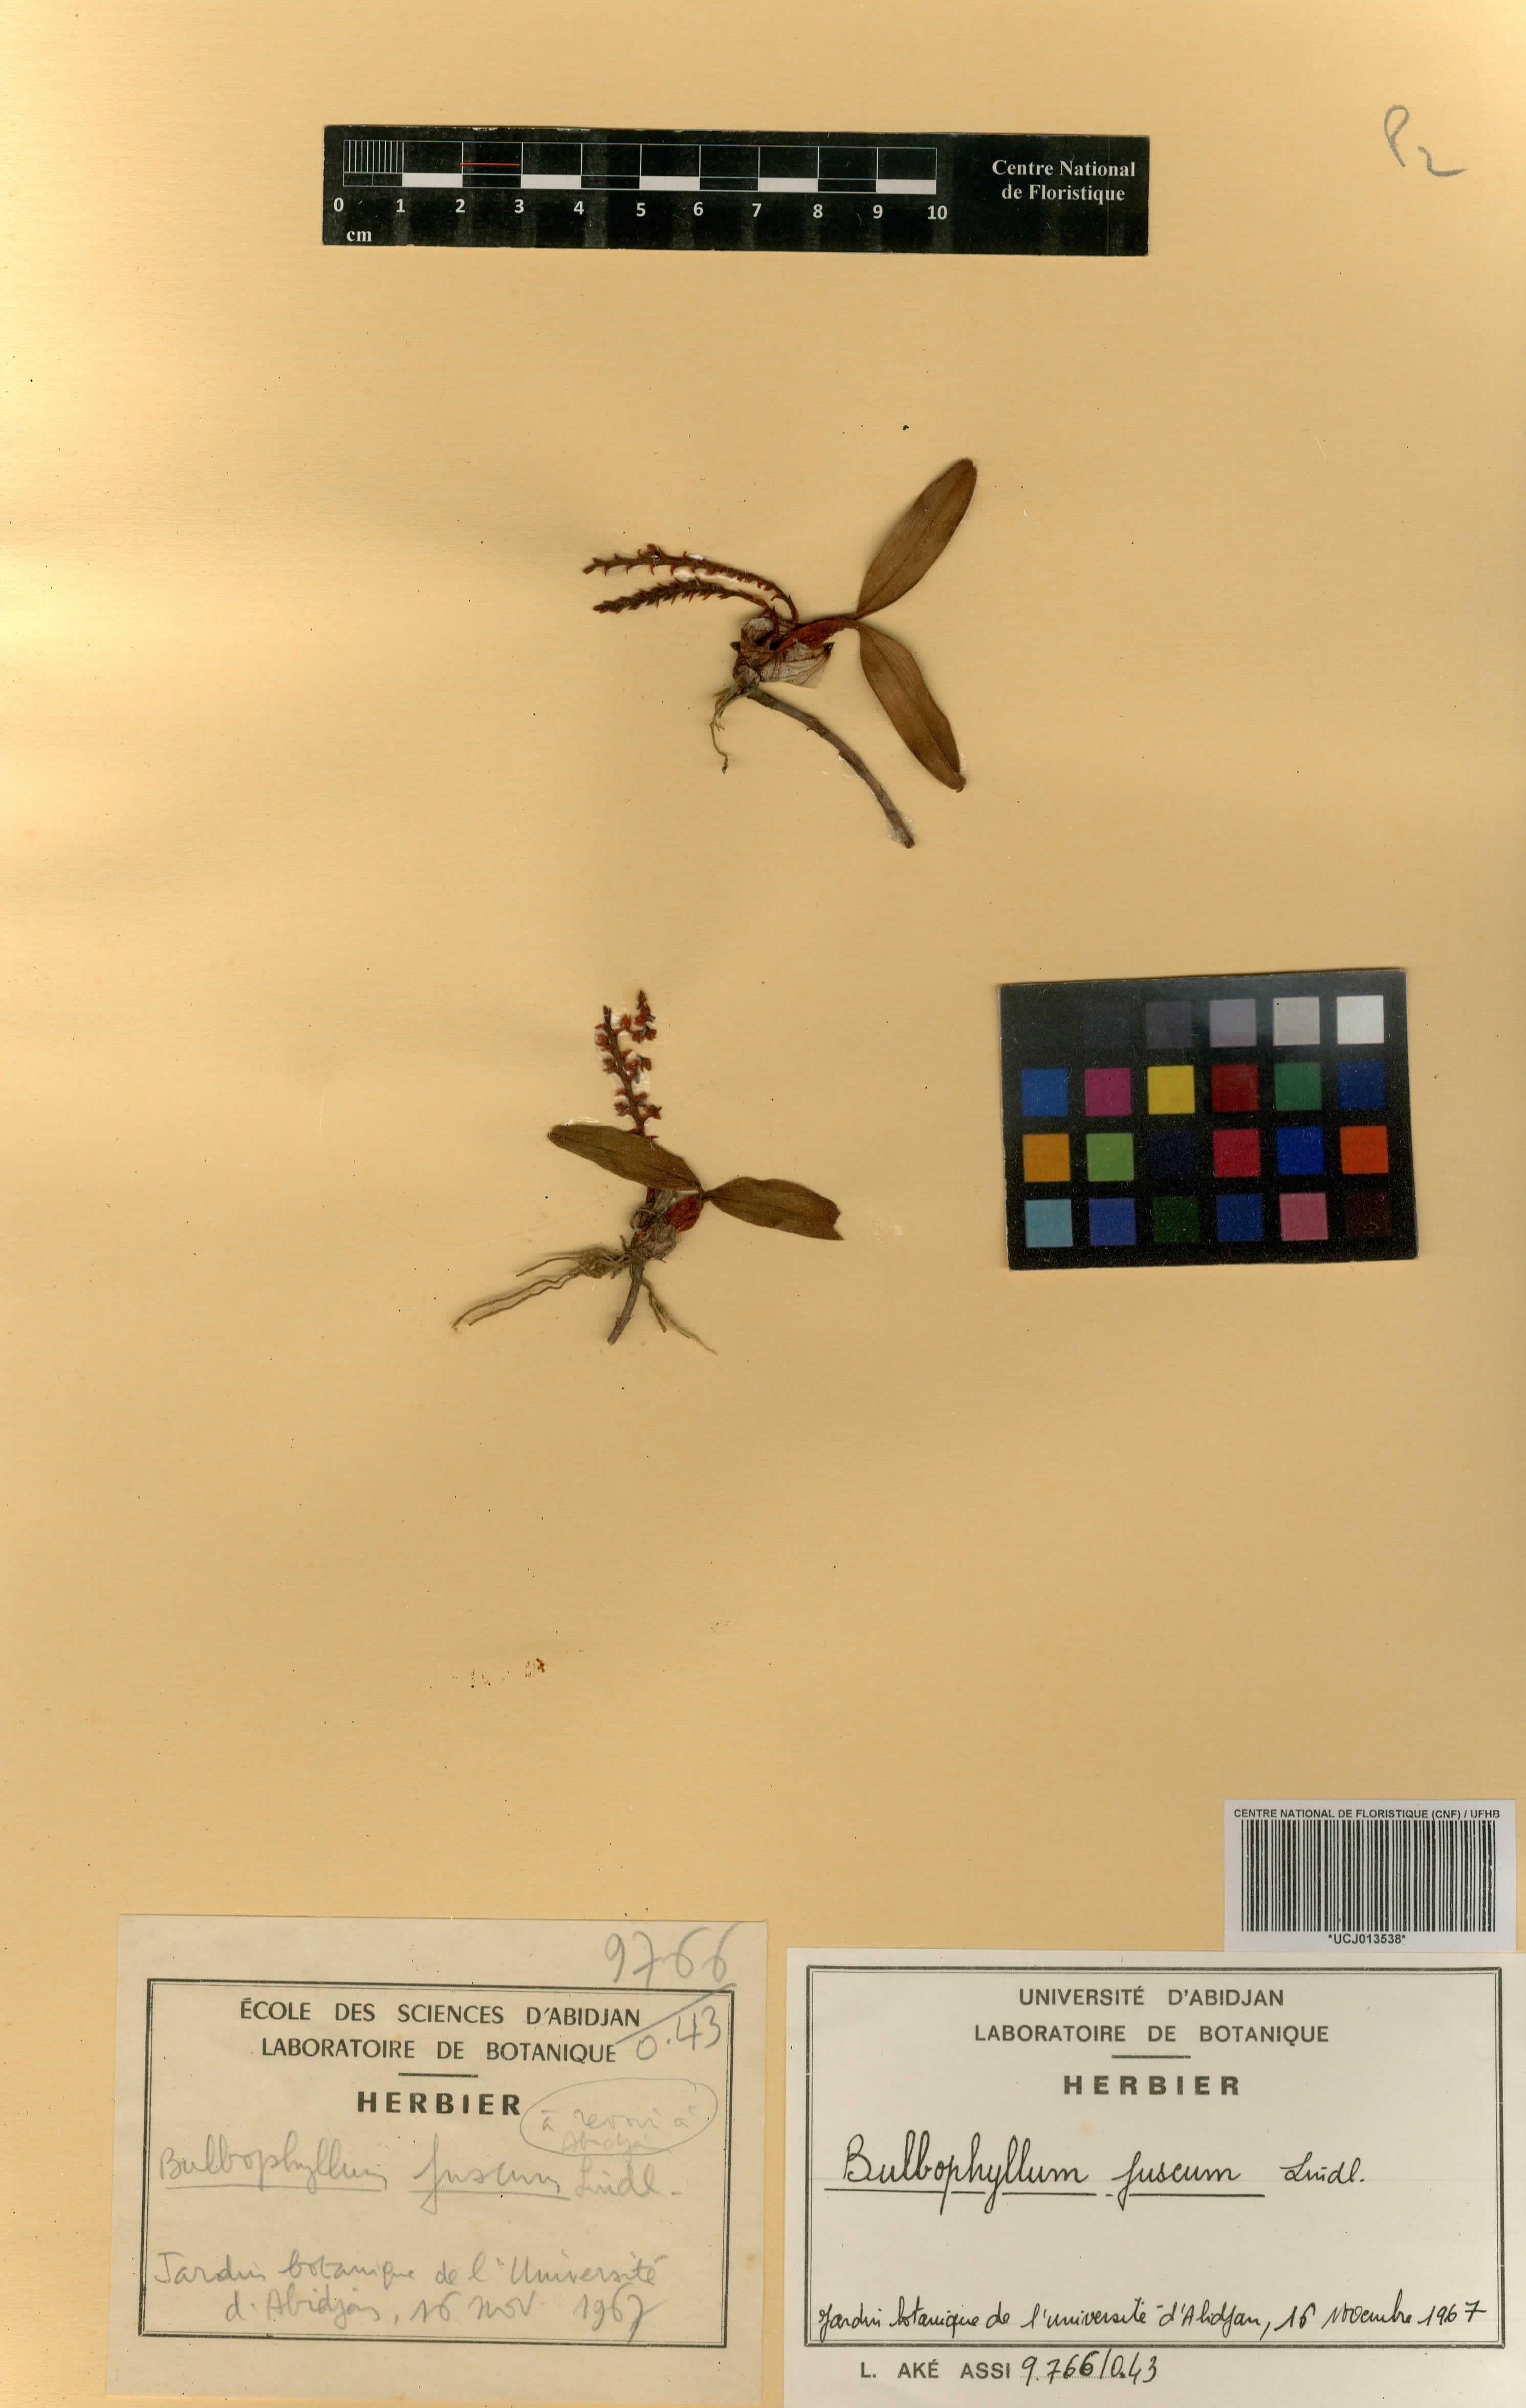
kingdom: Plantae
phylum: Tracheophyta
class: Liliopsida
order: Asparagales
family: Orchidaceae
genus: Bulbophyllum
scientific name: Bulbophyllum fuscum
